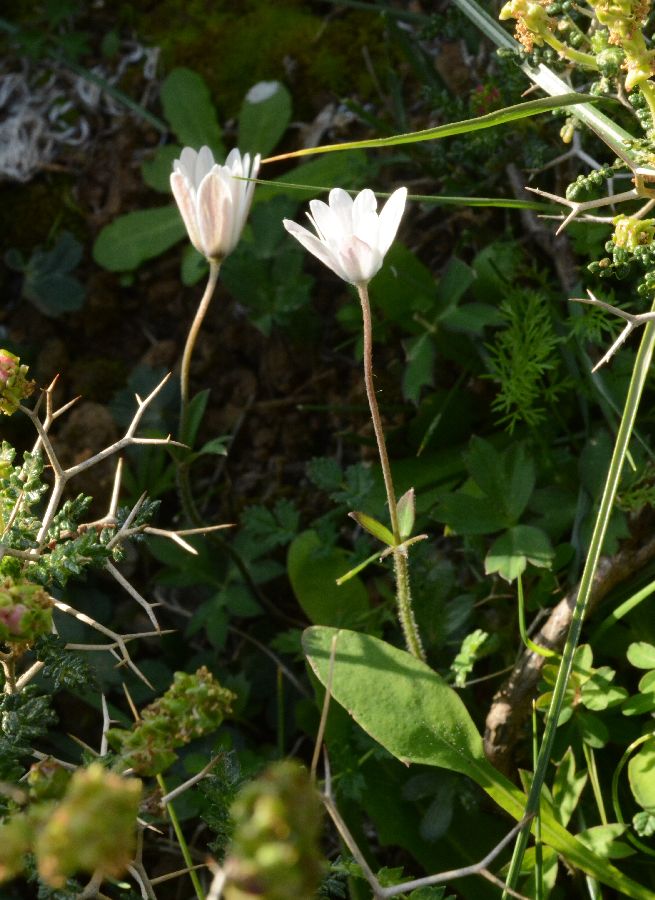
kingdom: Plantae
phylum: Tracheophyta
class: Magnoliopsida
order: Ranunculales
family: Ranunculaceae
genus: Anemone
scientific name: Anemone hortensis
